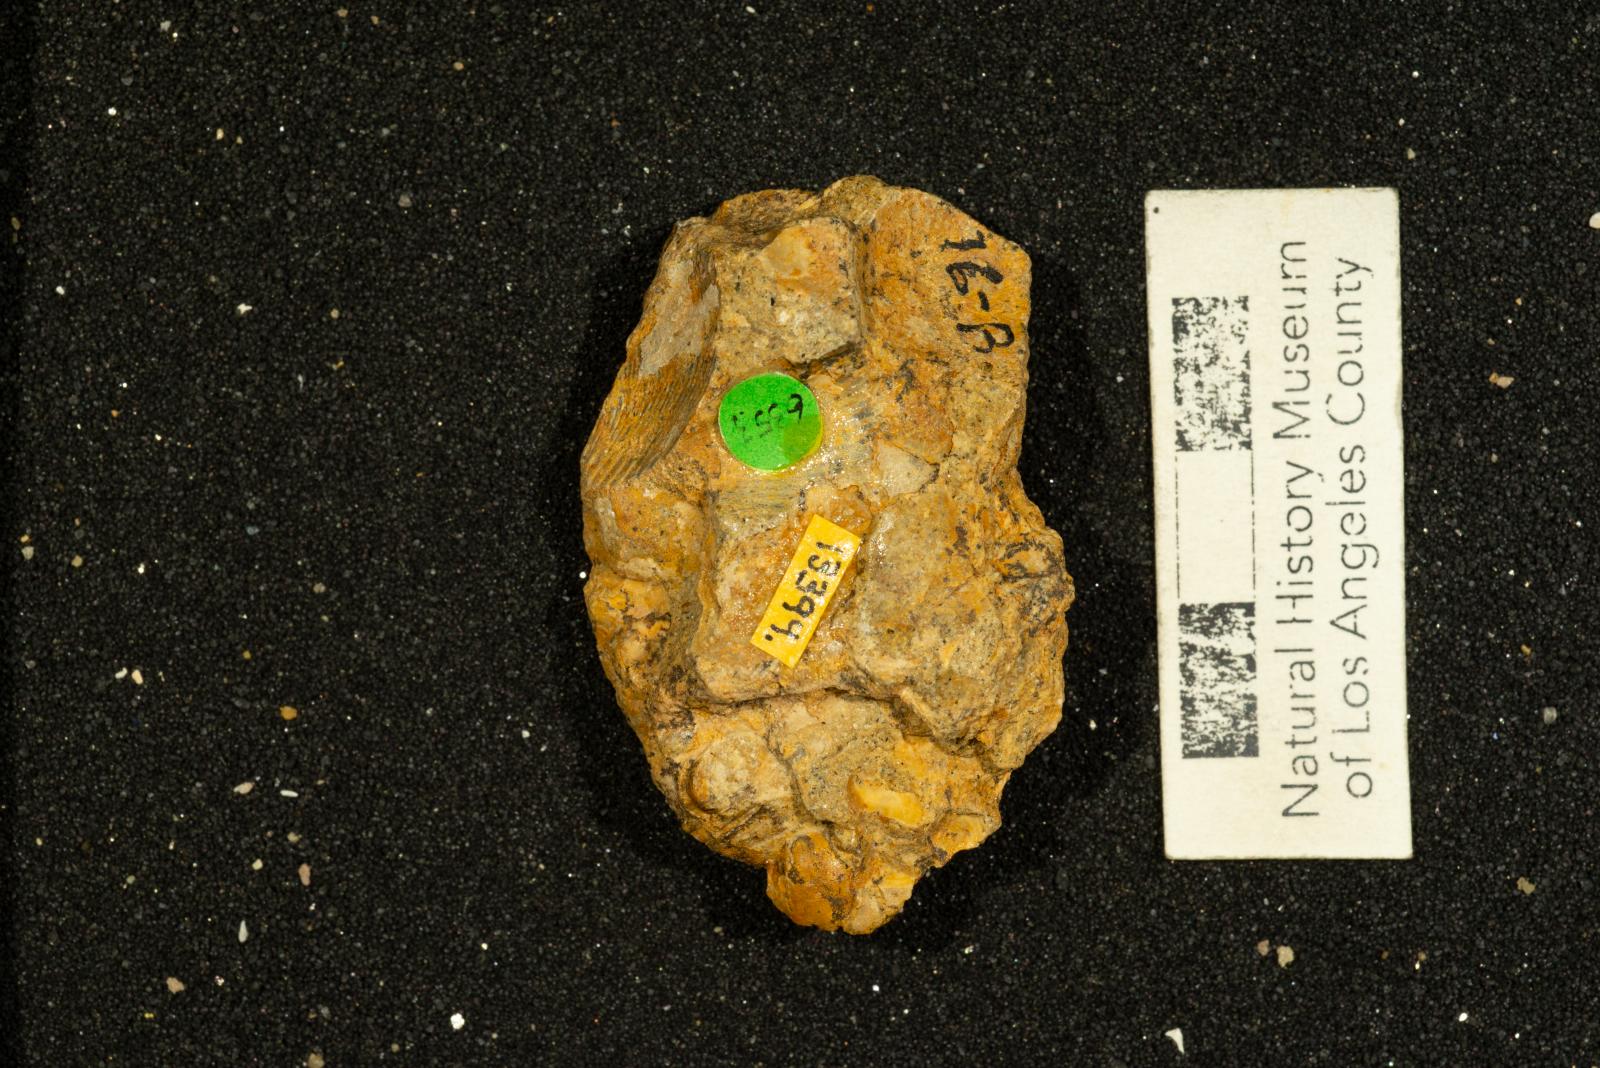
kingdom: Animalia
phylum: Mollusca
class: Gastropoda
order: Littorinimorpha
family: Capulidae
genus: Garzasia
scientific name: Garzasia diabla
